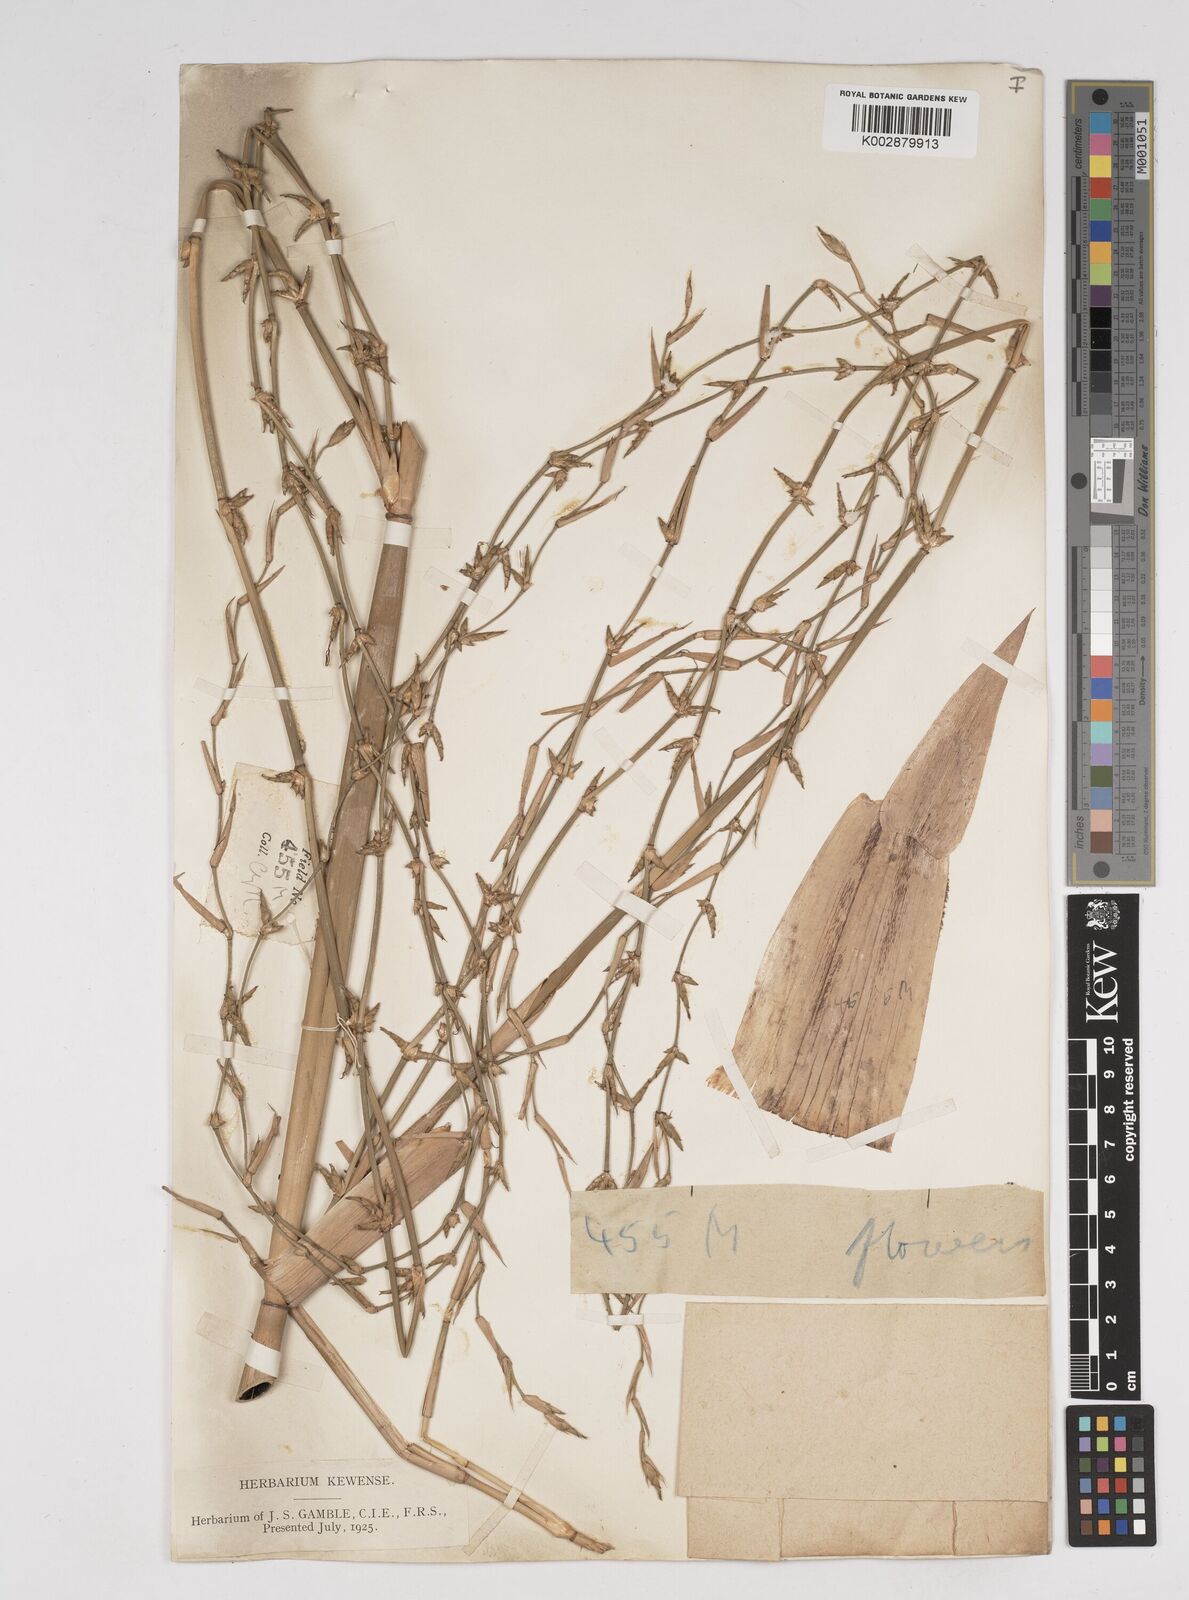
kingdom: Plantae
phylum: Tracheophyta
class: Liliopsida
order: Poales
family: Poaceae
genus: Gigantochloa
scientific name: Gigantochloa nigrociliata
